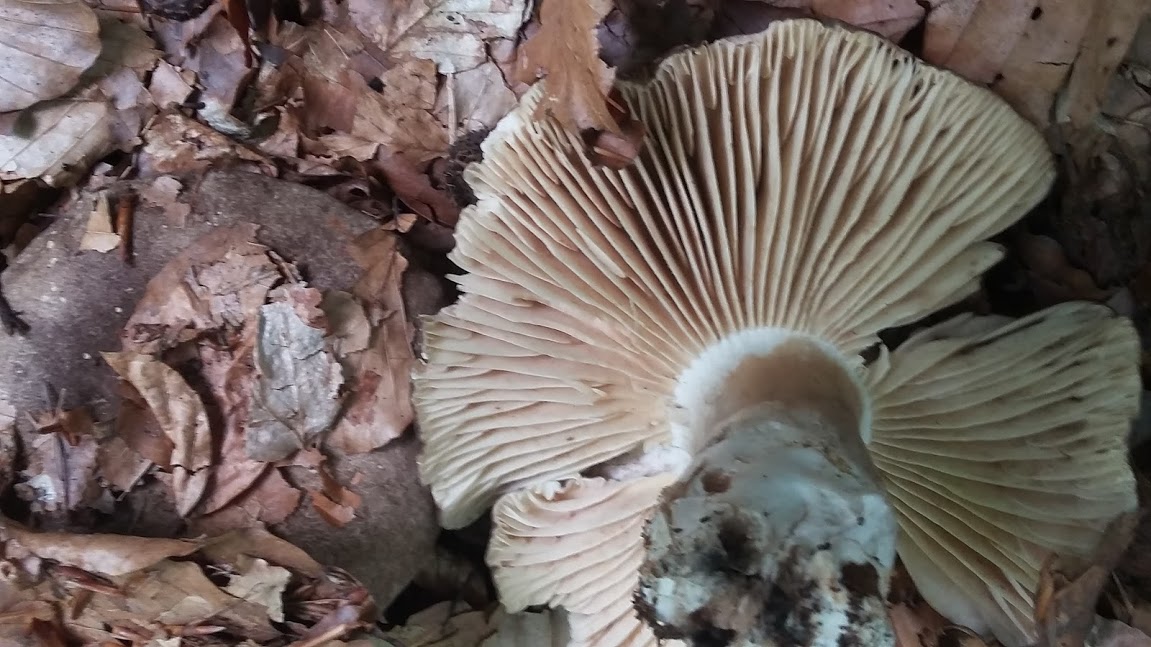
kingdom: Fungi
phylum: Basidiomycota
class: Agaricomycetes
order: Russulales
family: Russulaceae
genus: Russula
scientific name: Russula adusta
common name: sværtende skørhat
